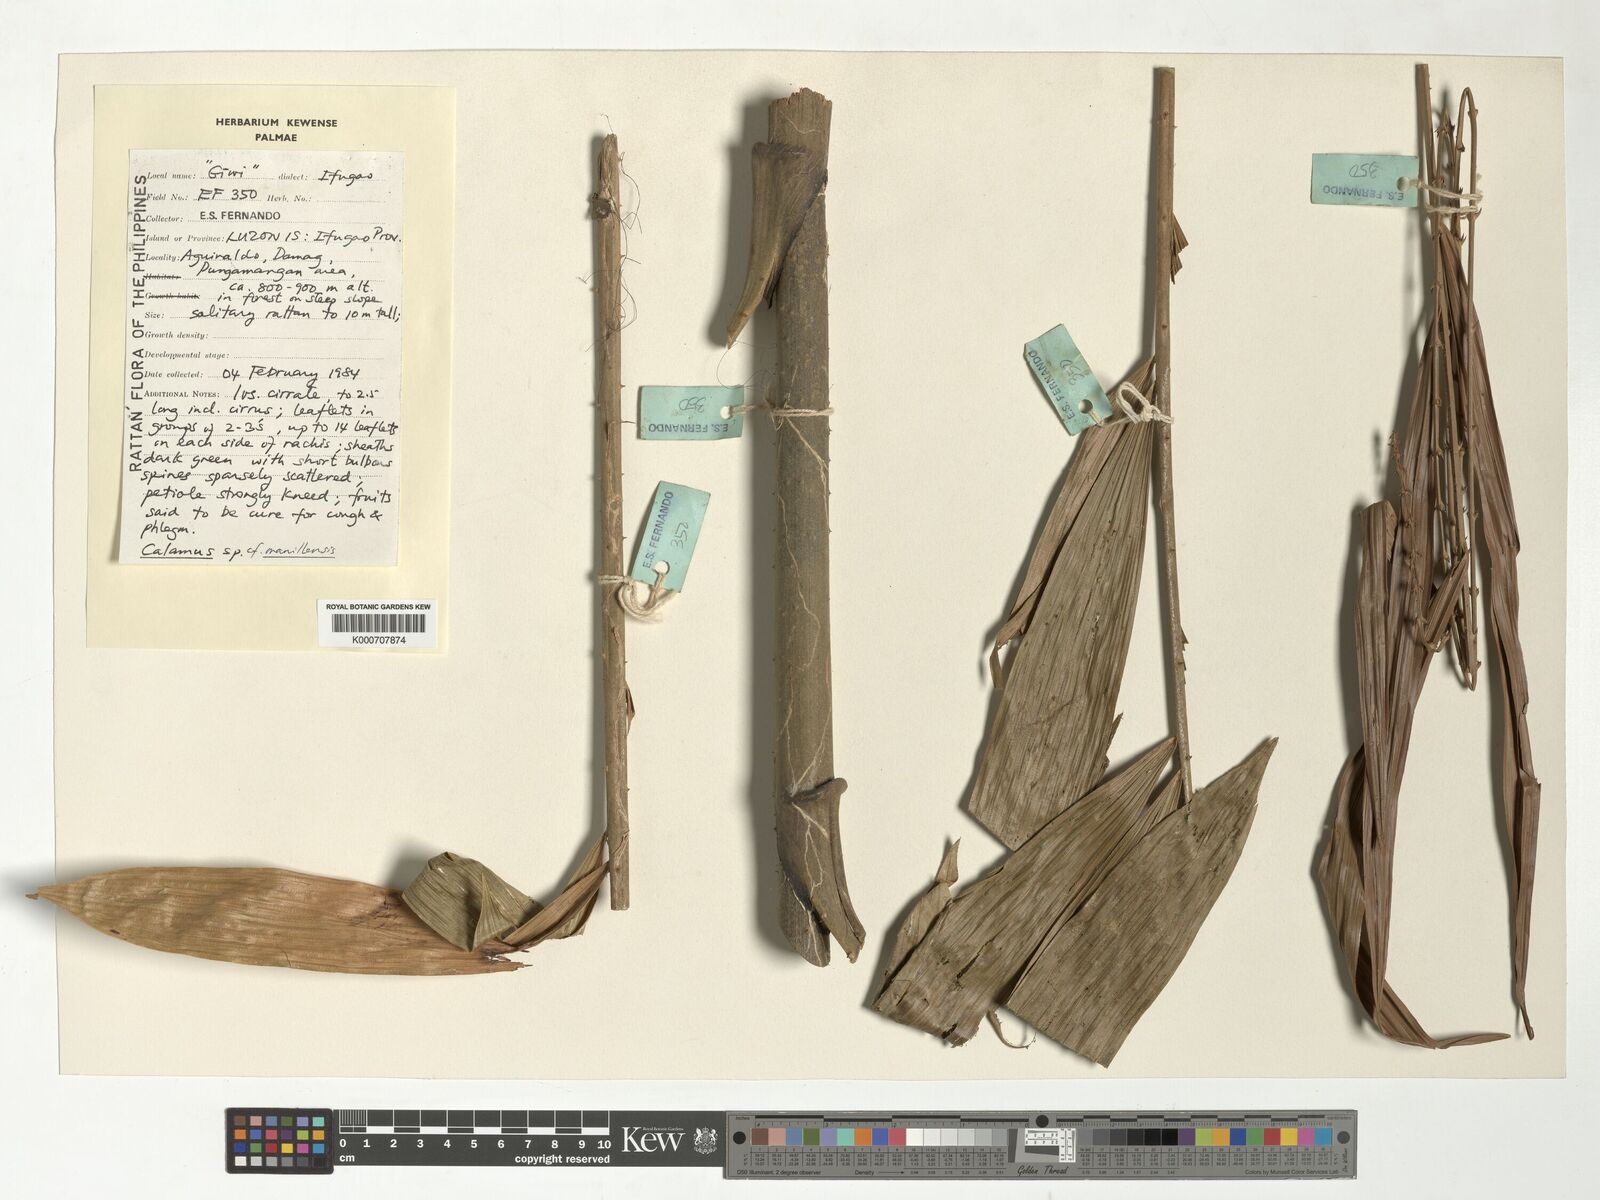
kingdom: Plantae
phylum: Tracheophyta
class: Liliopsida
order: Arecales
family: Arecaceae
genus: Calamus
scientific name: Calamus manillensis
